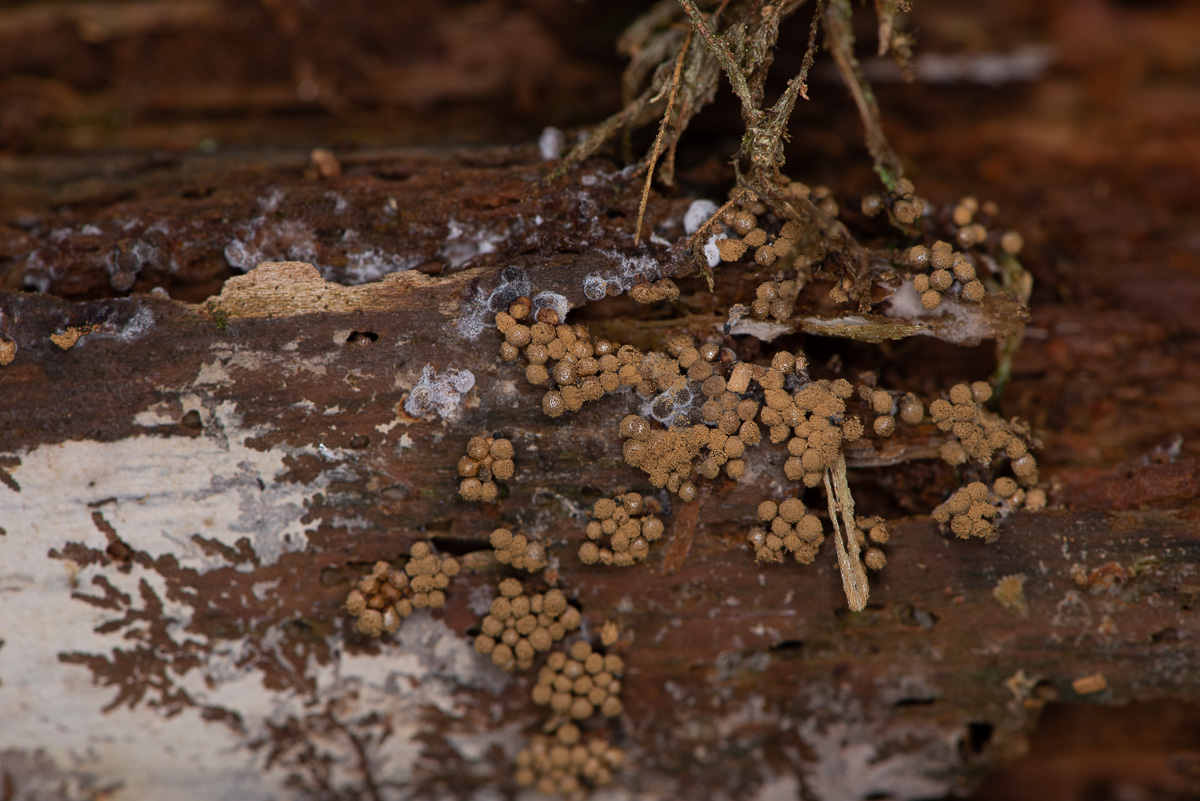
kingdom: Protozoa
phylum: Mycetozoa
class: Myxomycetes
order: Cribrariales
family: Cribrariaceae
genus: Cribraria
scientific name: Cribraria
